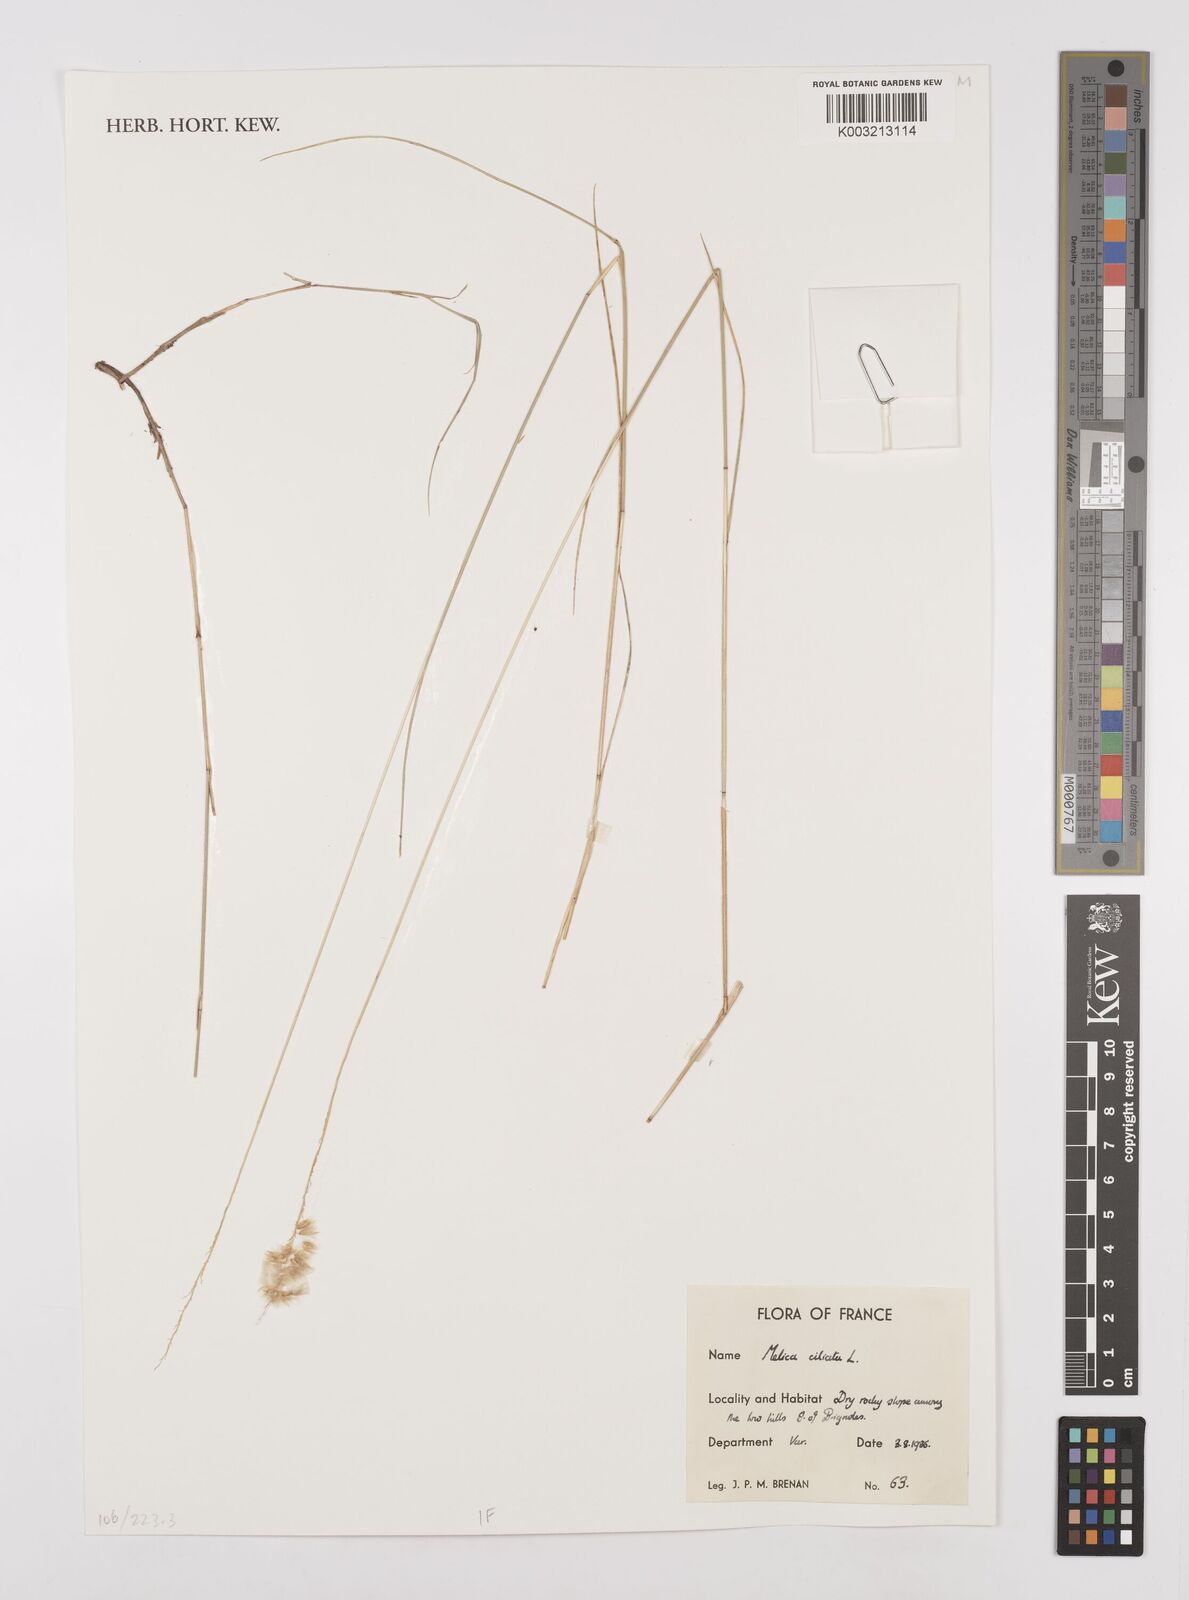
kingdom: Plantae
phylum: Tracheophyta
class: Liliopsida
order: Poales
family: Poaceae
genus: Melica
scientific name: Melica ciliata
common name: Hairy melicgrass
